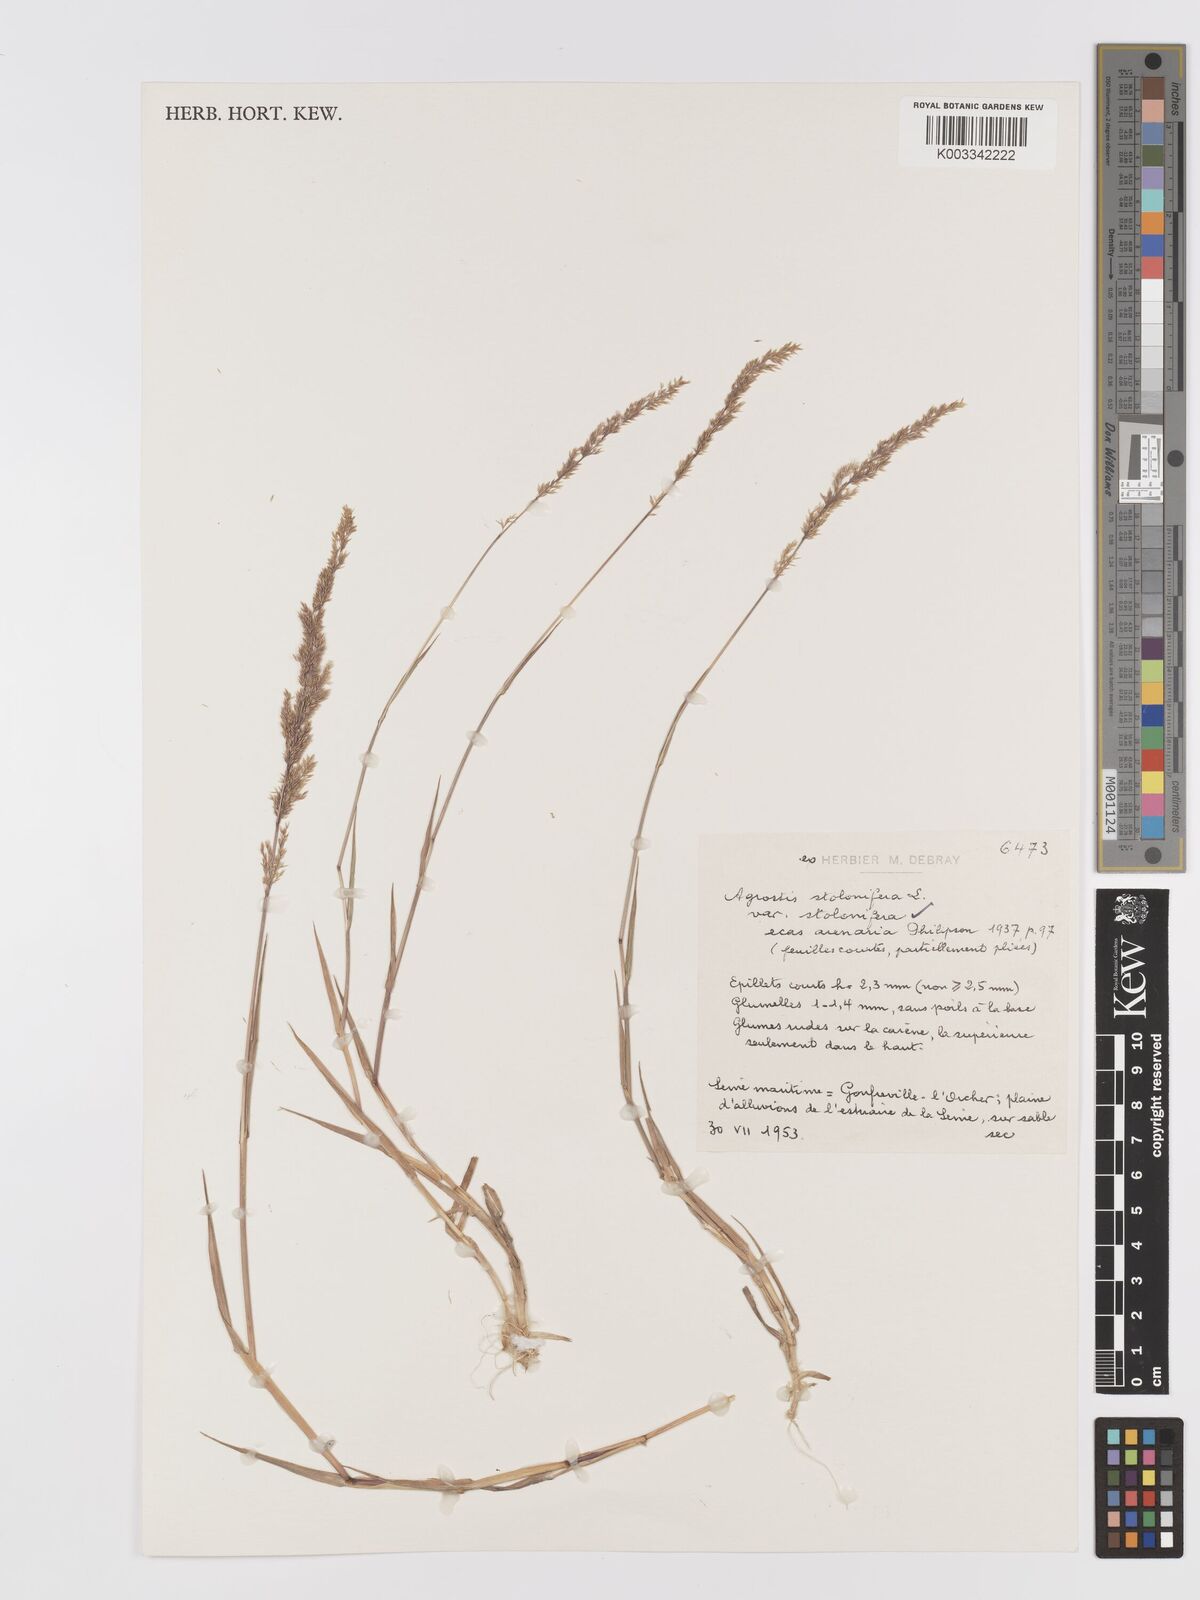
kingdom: Plantae
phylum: Tracheophyta
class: Liliopsida
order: Poales
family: Poaceae
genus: Agrostis
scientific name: Agrostis stolonifera
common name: Creeping bentgrass
